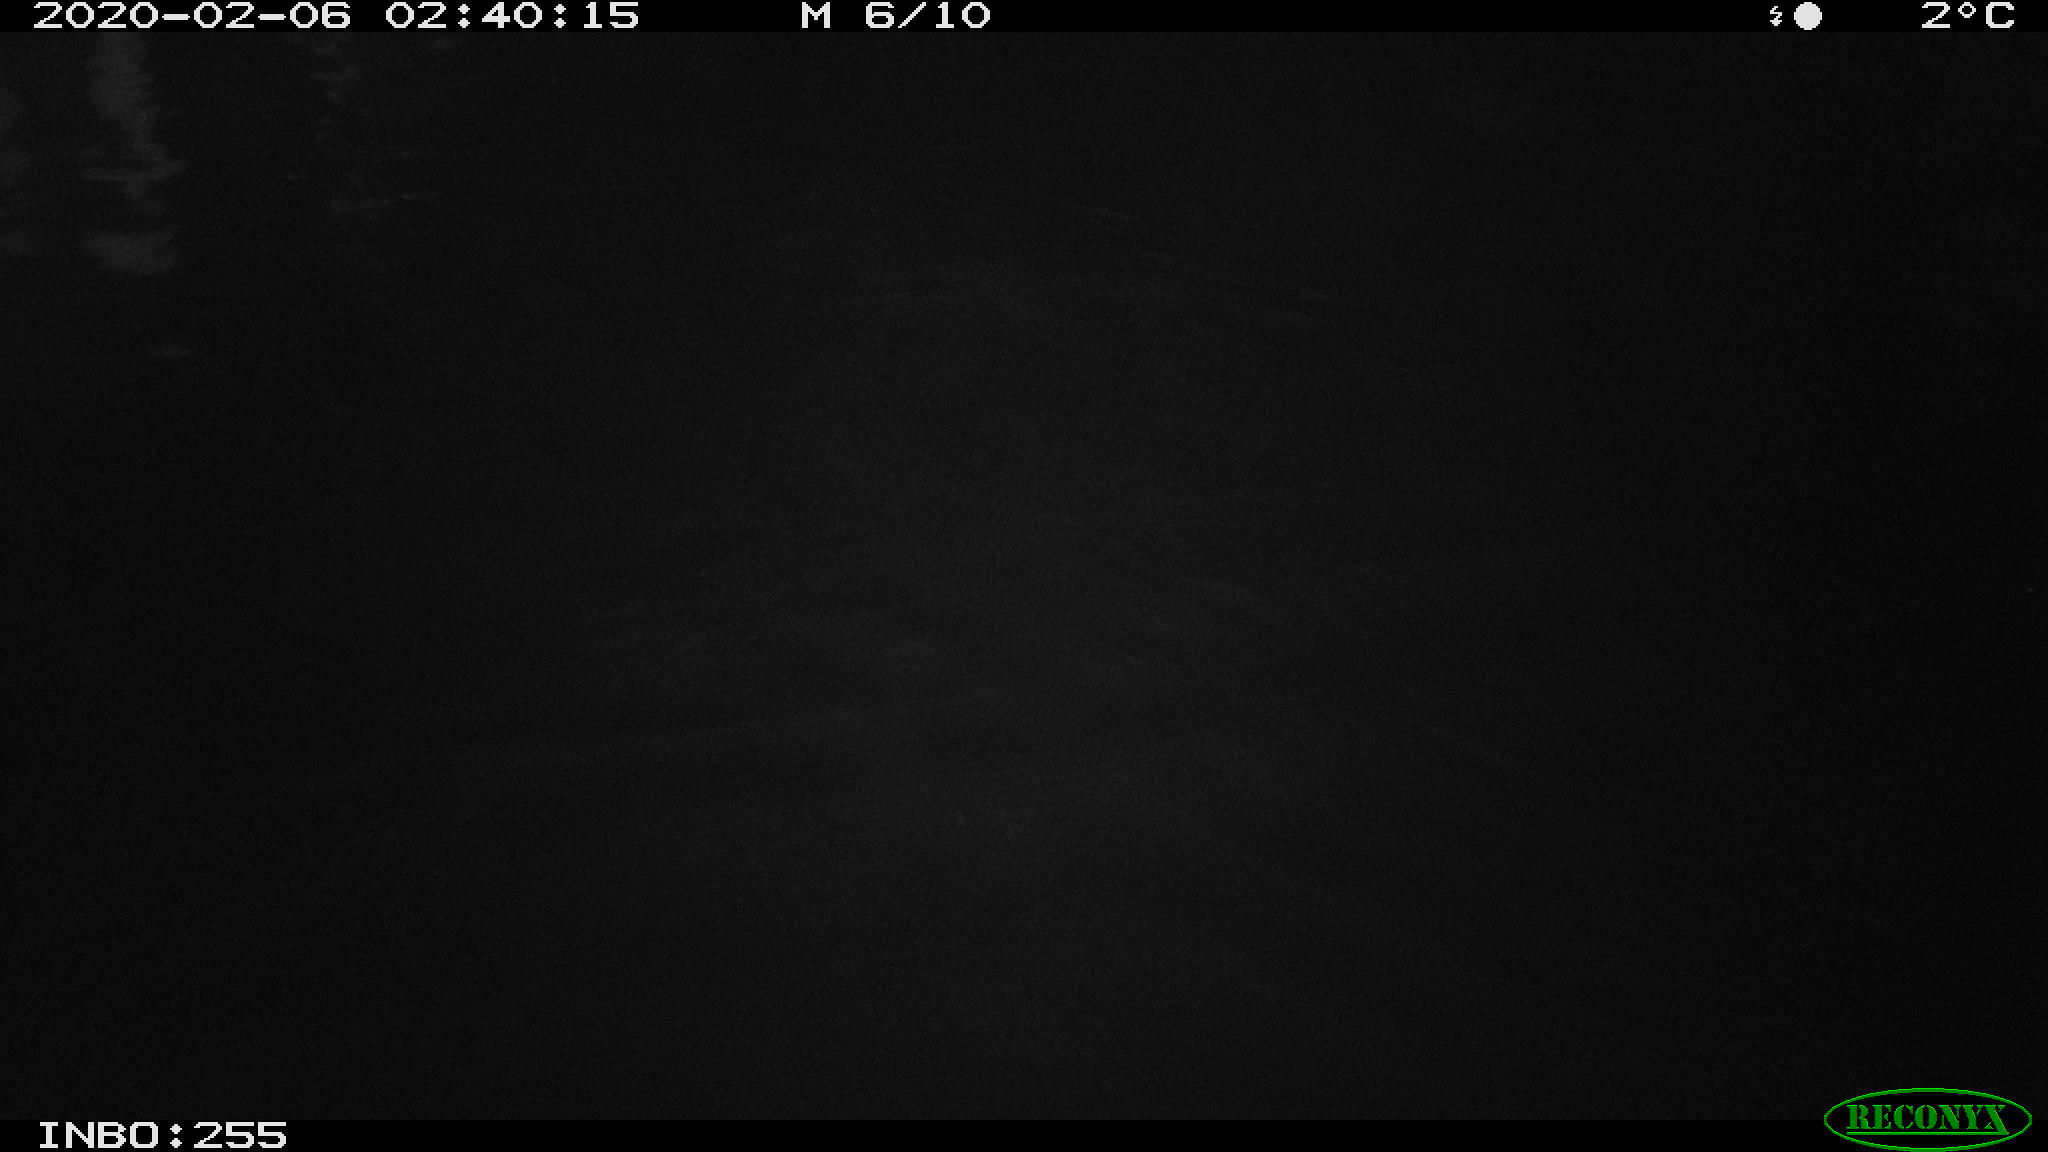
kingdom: Animalia
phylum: Chordata
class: Aves
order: Gruiformes
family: Rallidae
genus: Gallinula
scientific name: Gallinula chloropus
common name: Common moorhen
